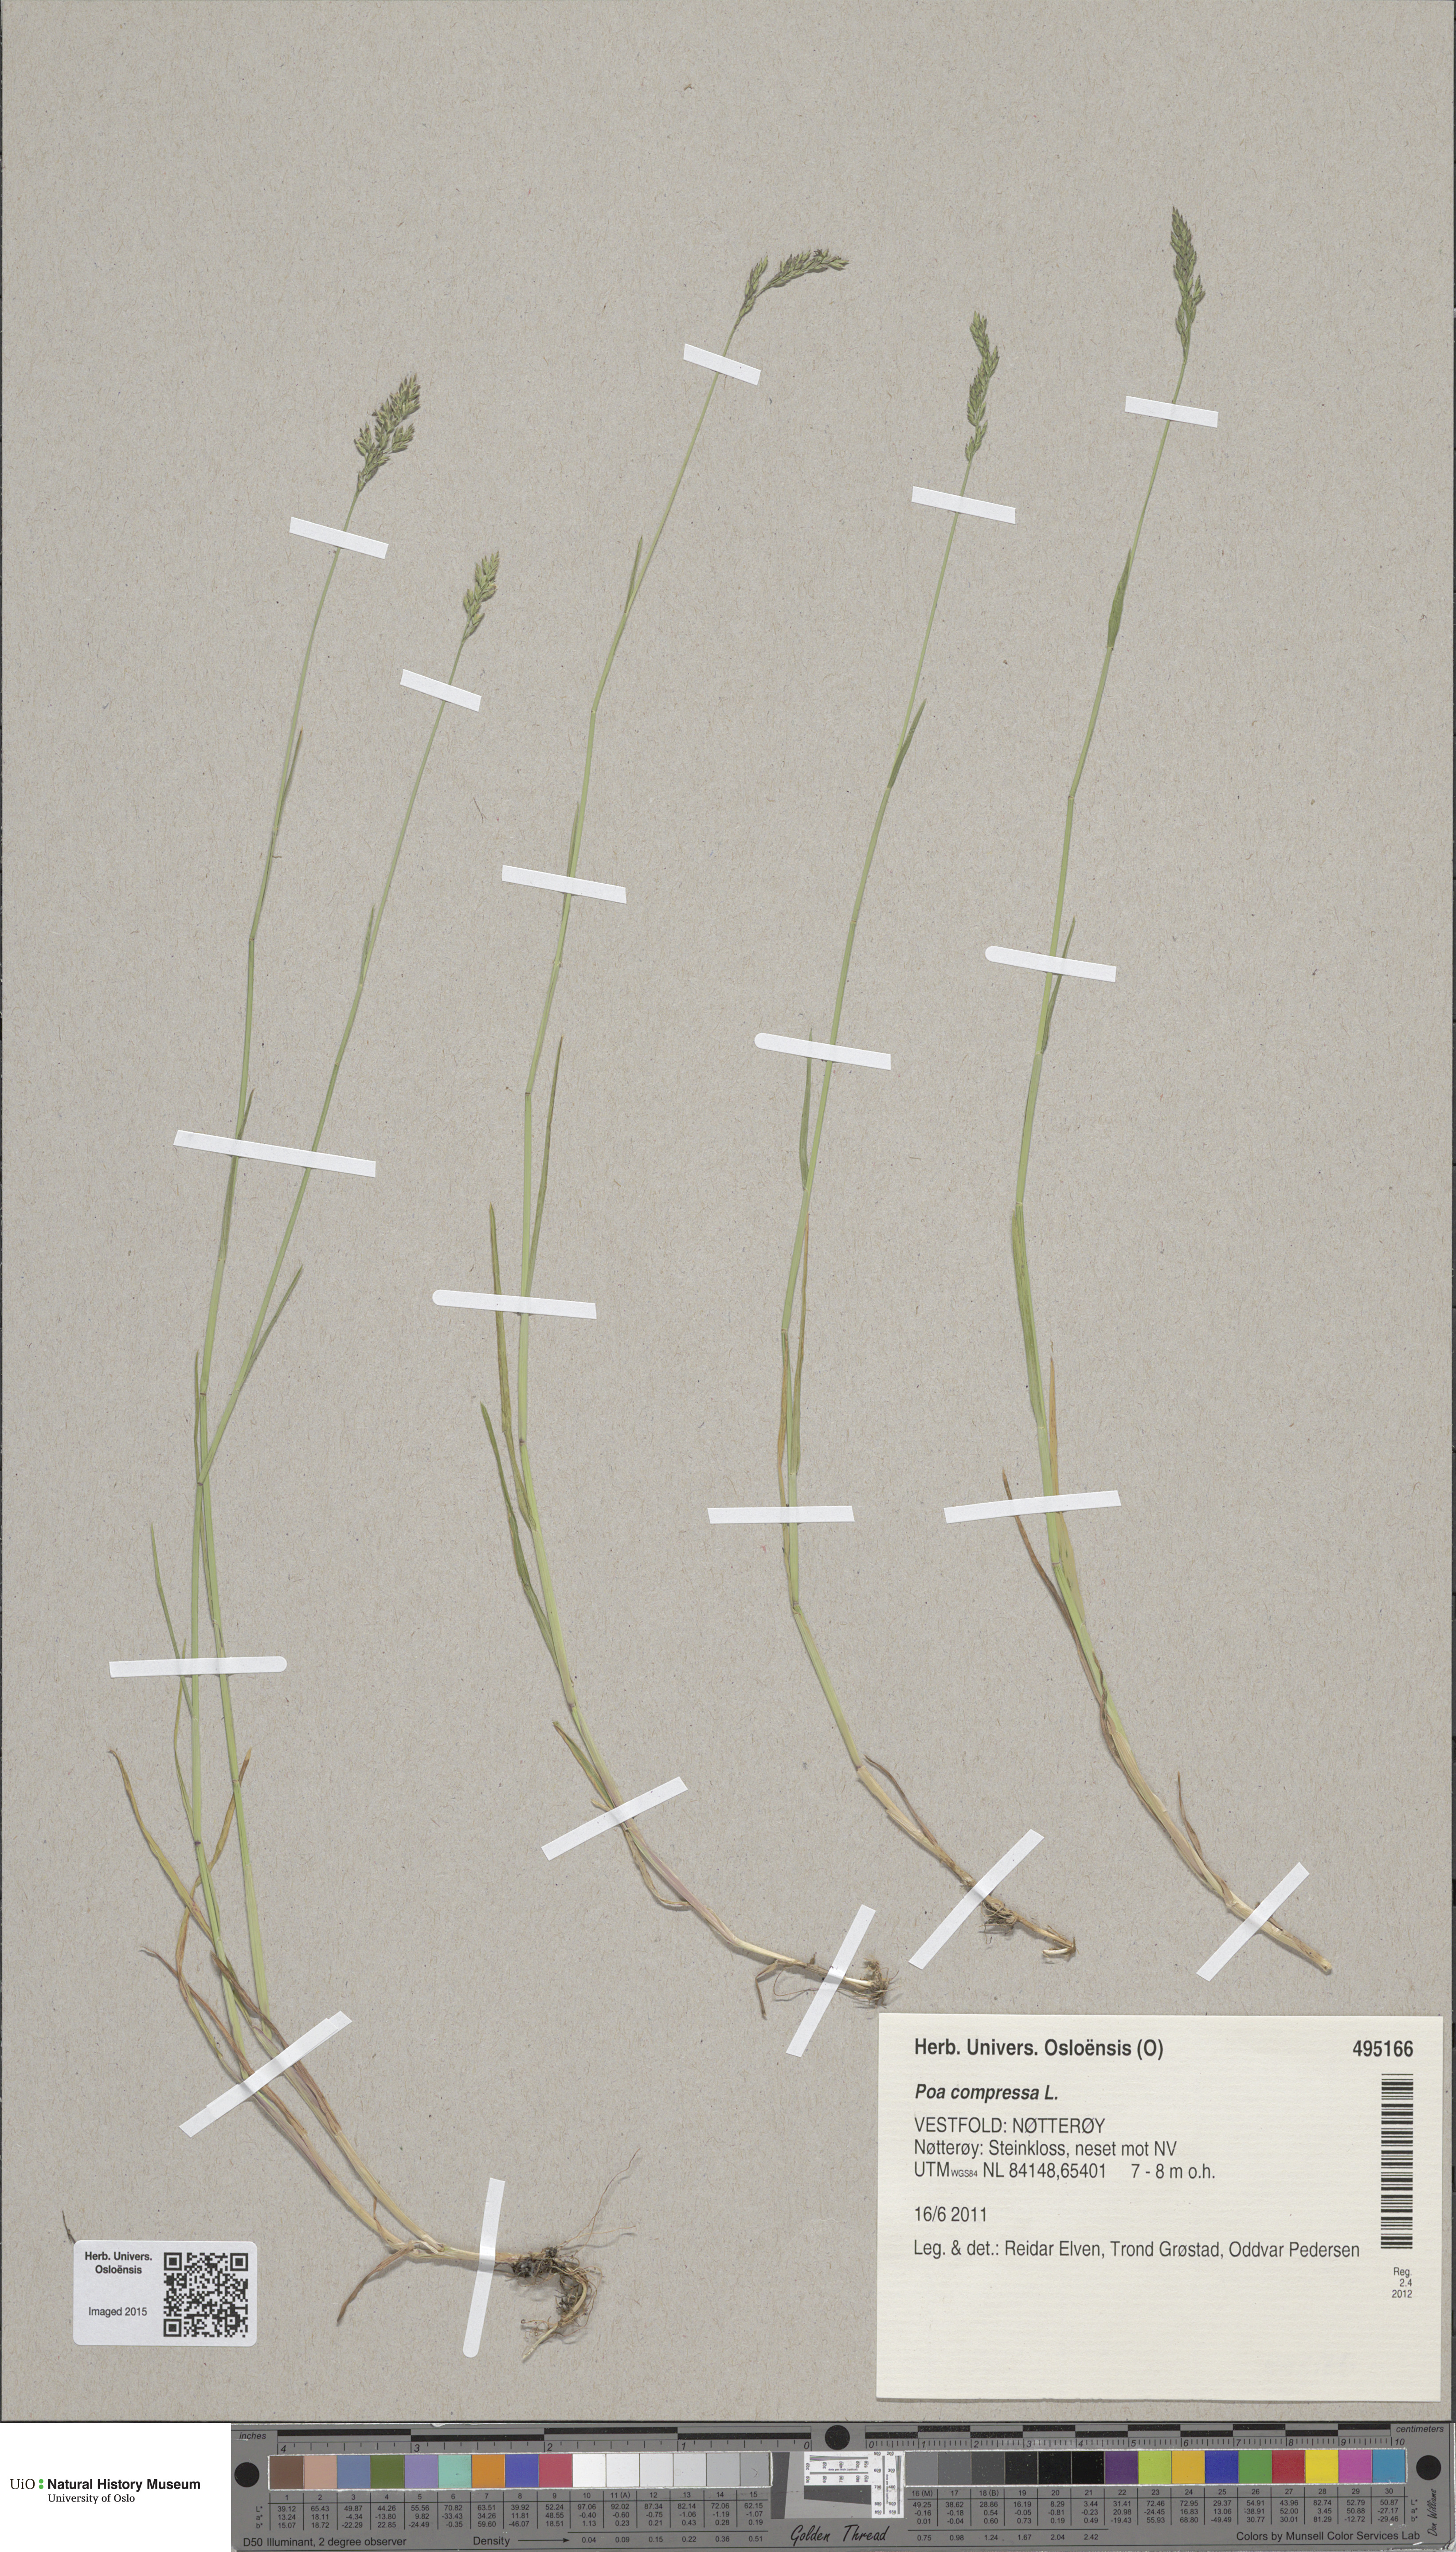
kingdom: Plantae
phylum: Tracheophyta
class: Liliopsida
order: Poales
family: Poaceae
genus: Poa
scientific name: Poa compressa
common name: Canada bluegrass
